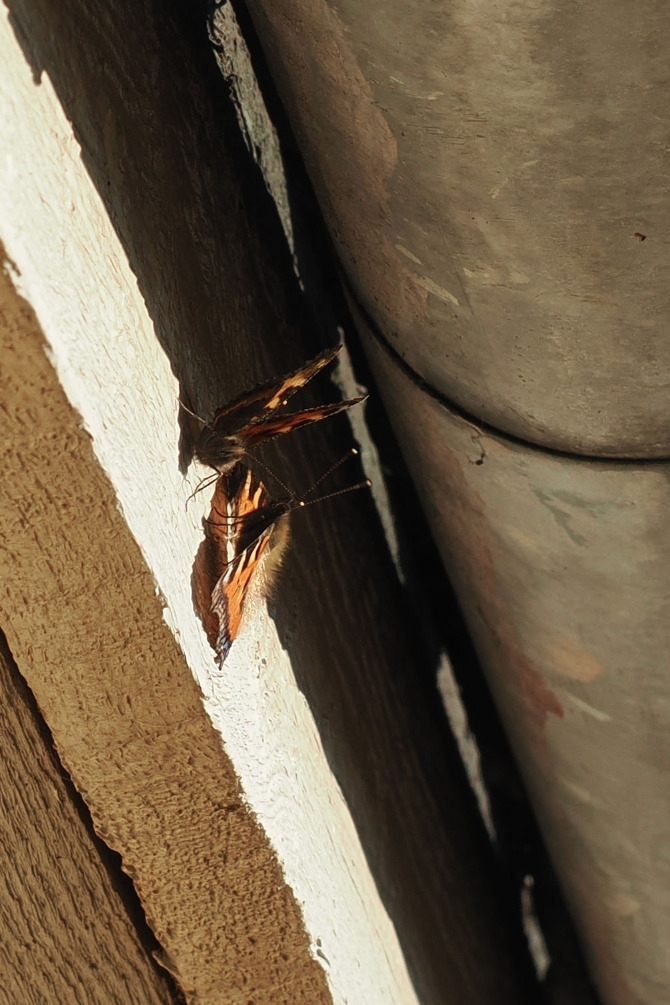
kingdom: Animalia
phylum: Arthropoda
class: Insecta
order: Lepidoptera
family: Nymphalidae
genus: Aglais
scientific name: Aglais urticae
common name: Nældens takvinge
